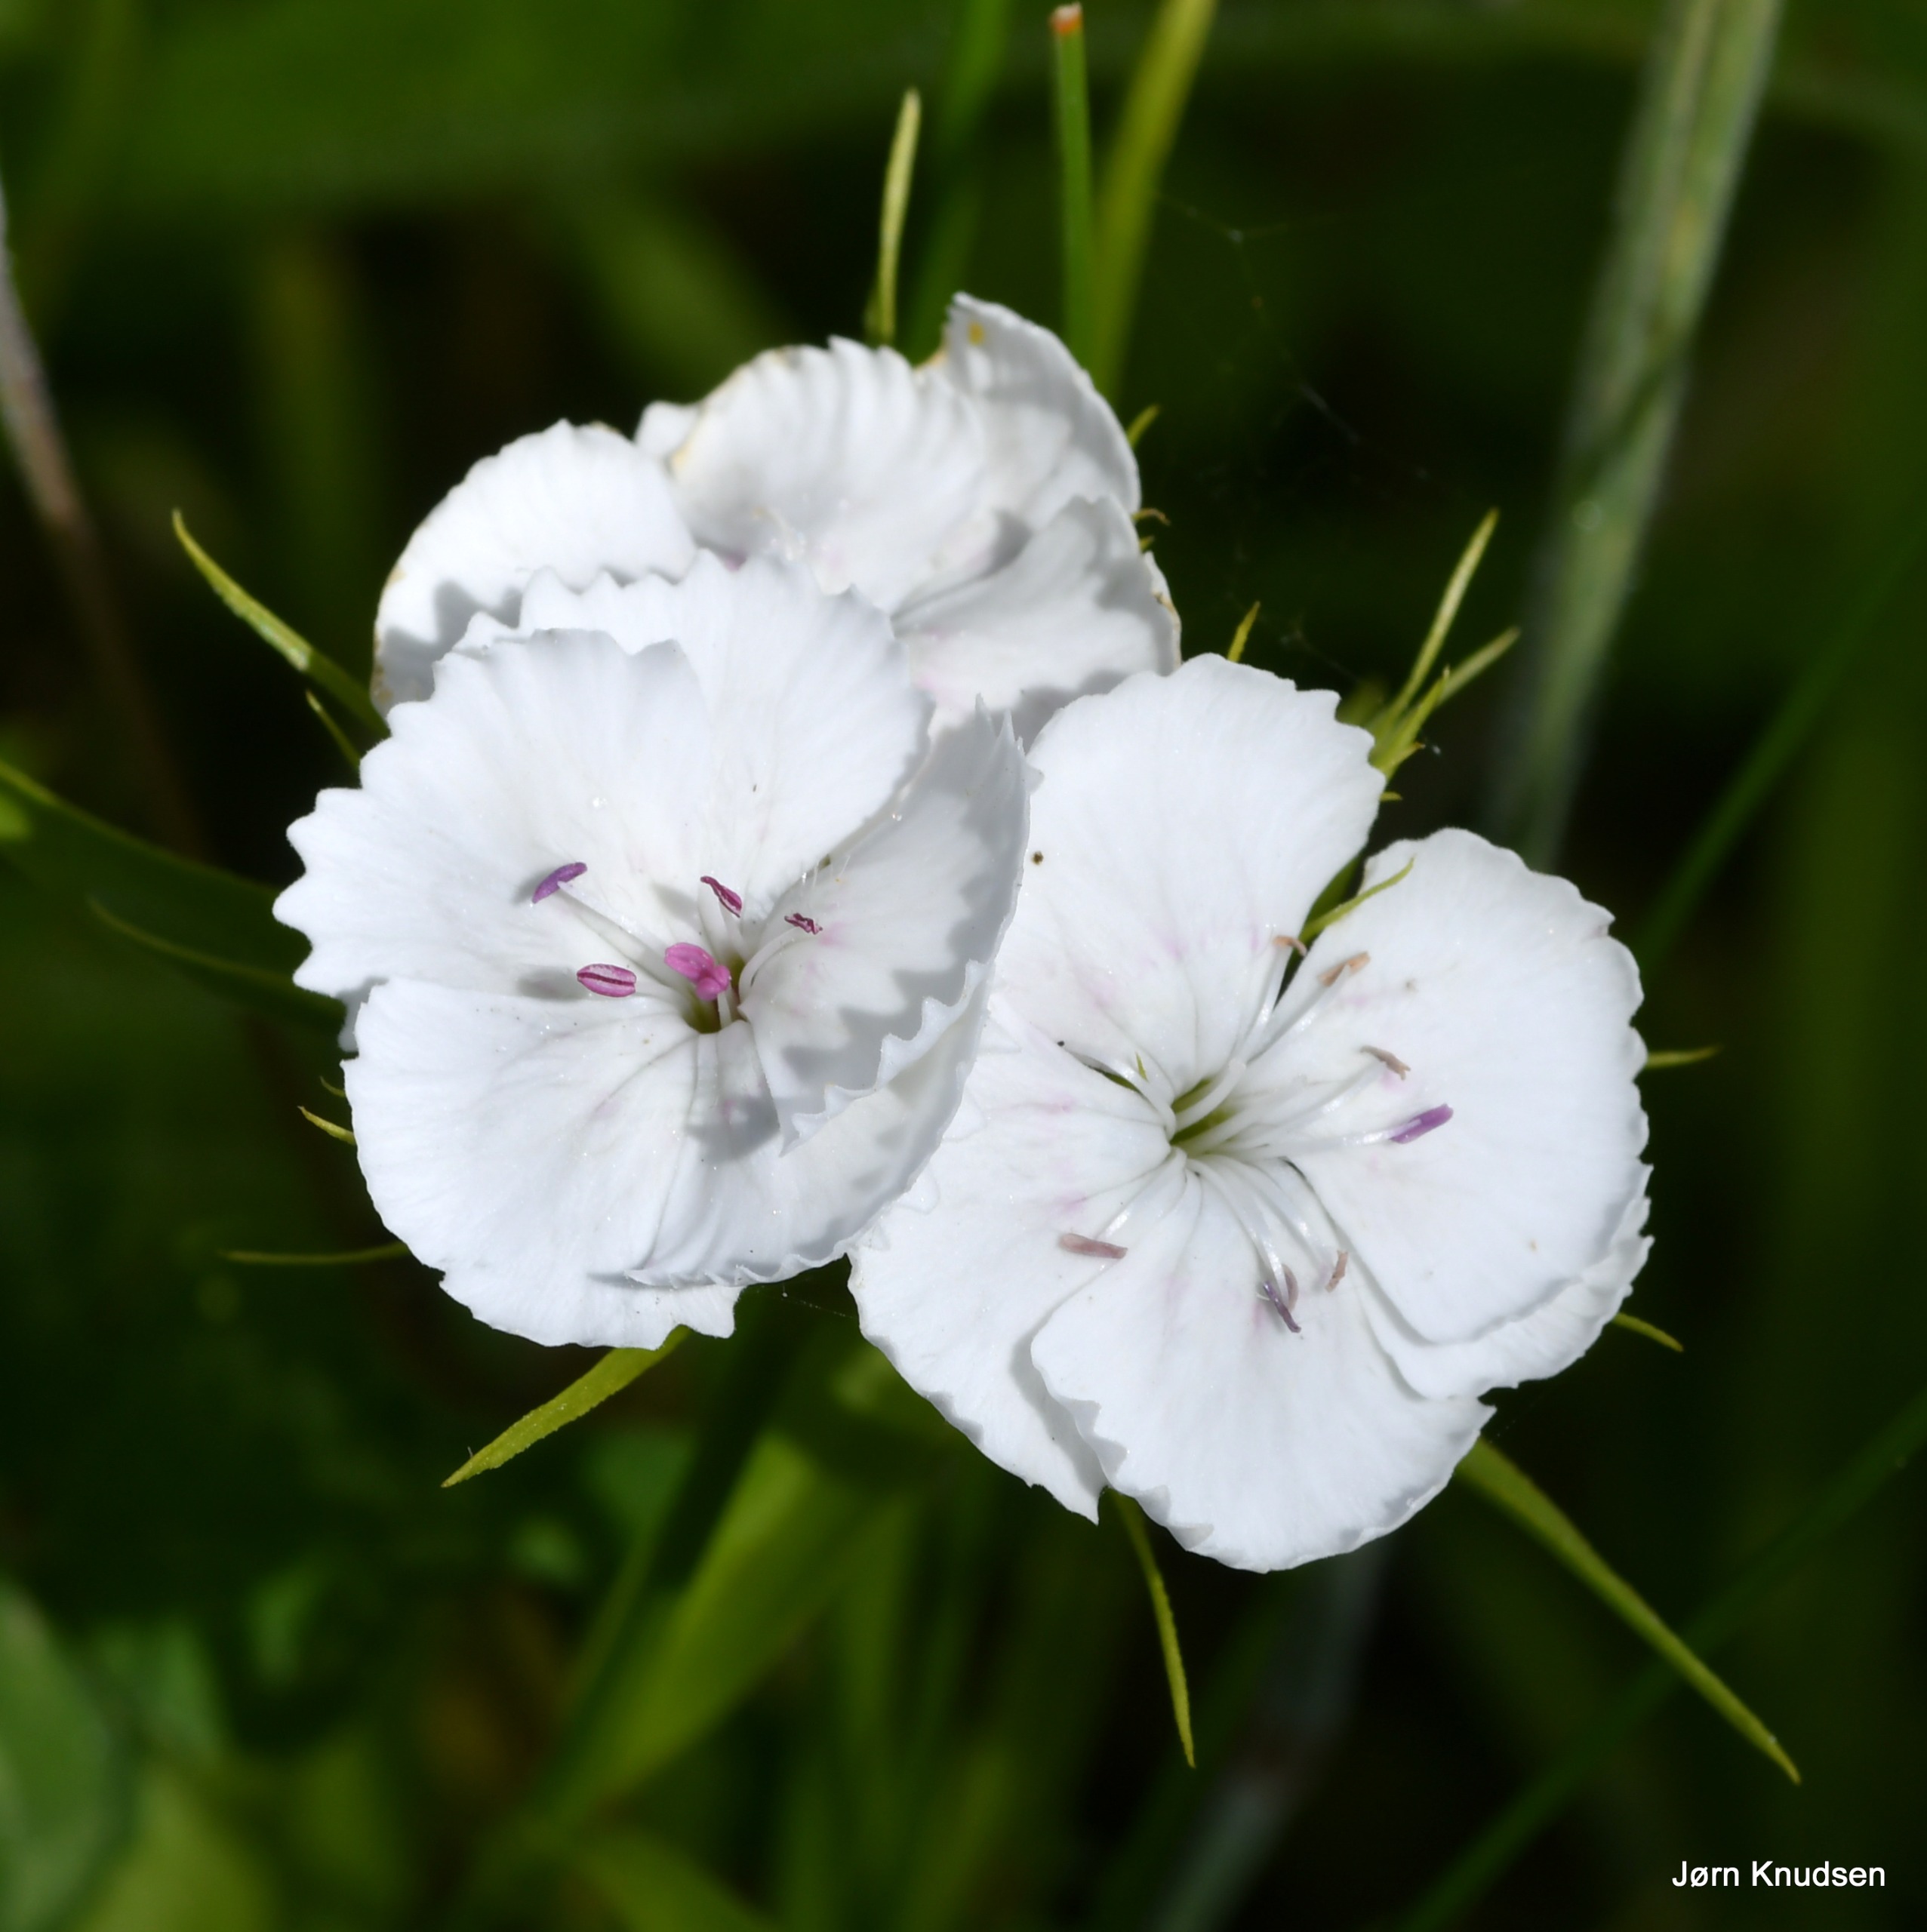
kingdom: Plantae
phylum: Tracheophyta
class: Magnoliopsida
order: Caryophyllales
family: Caryophyllaceae
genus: Dianthus
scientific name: Dianthus barbatus
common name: Studenter-nellike
